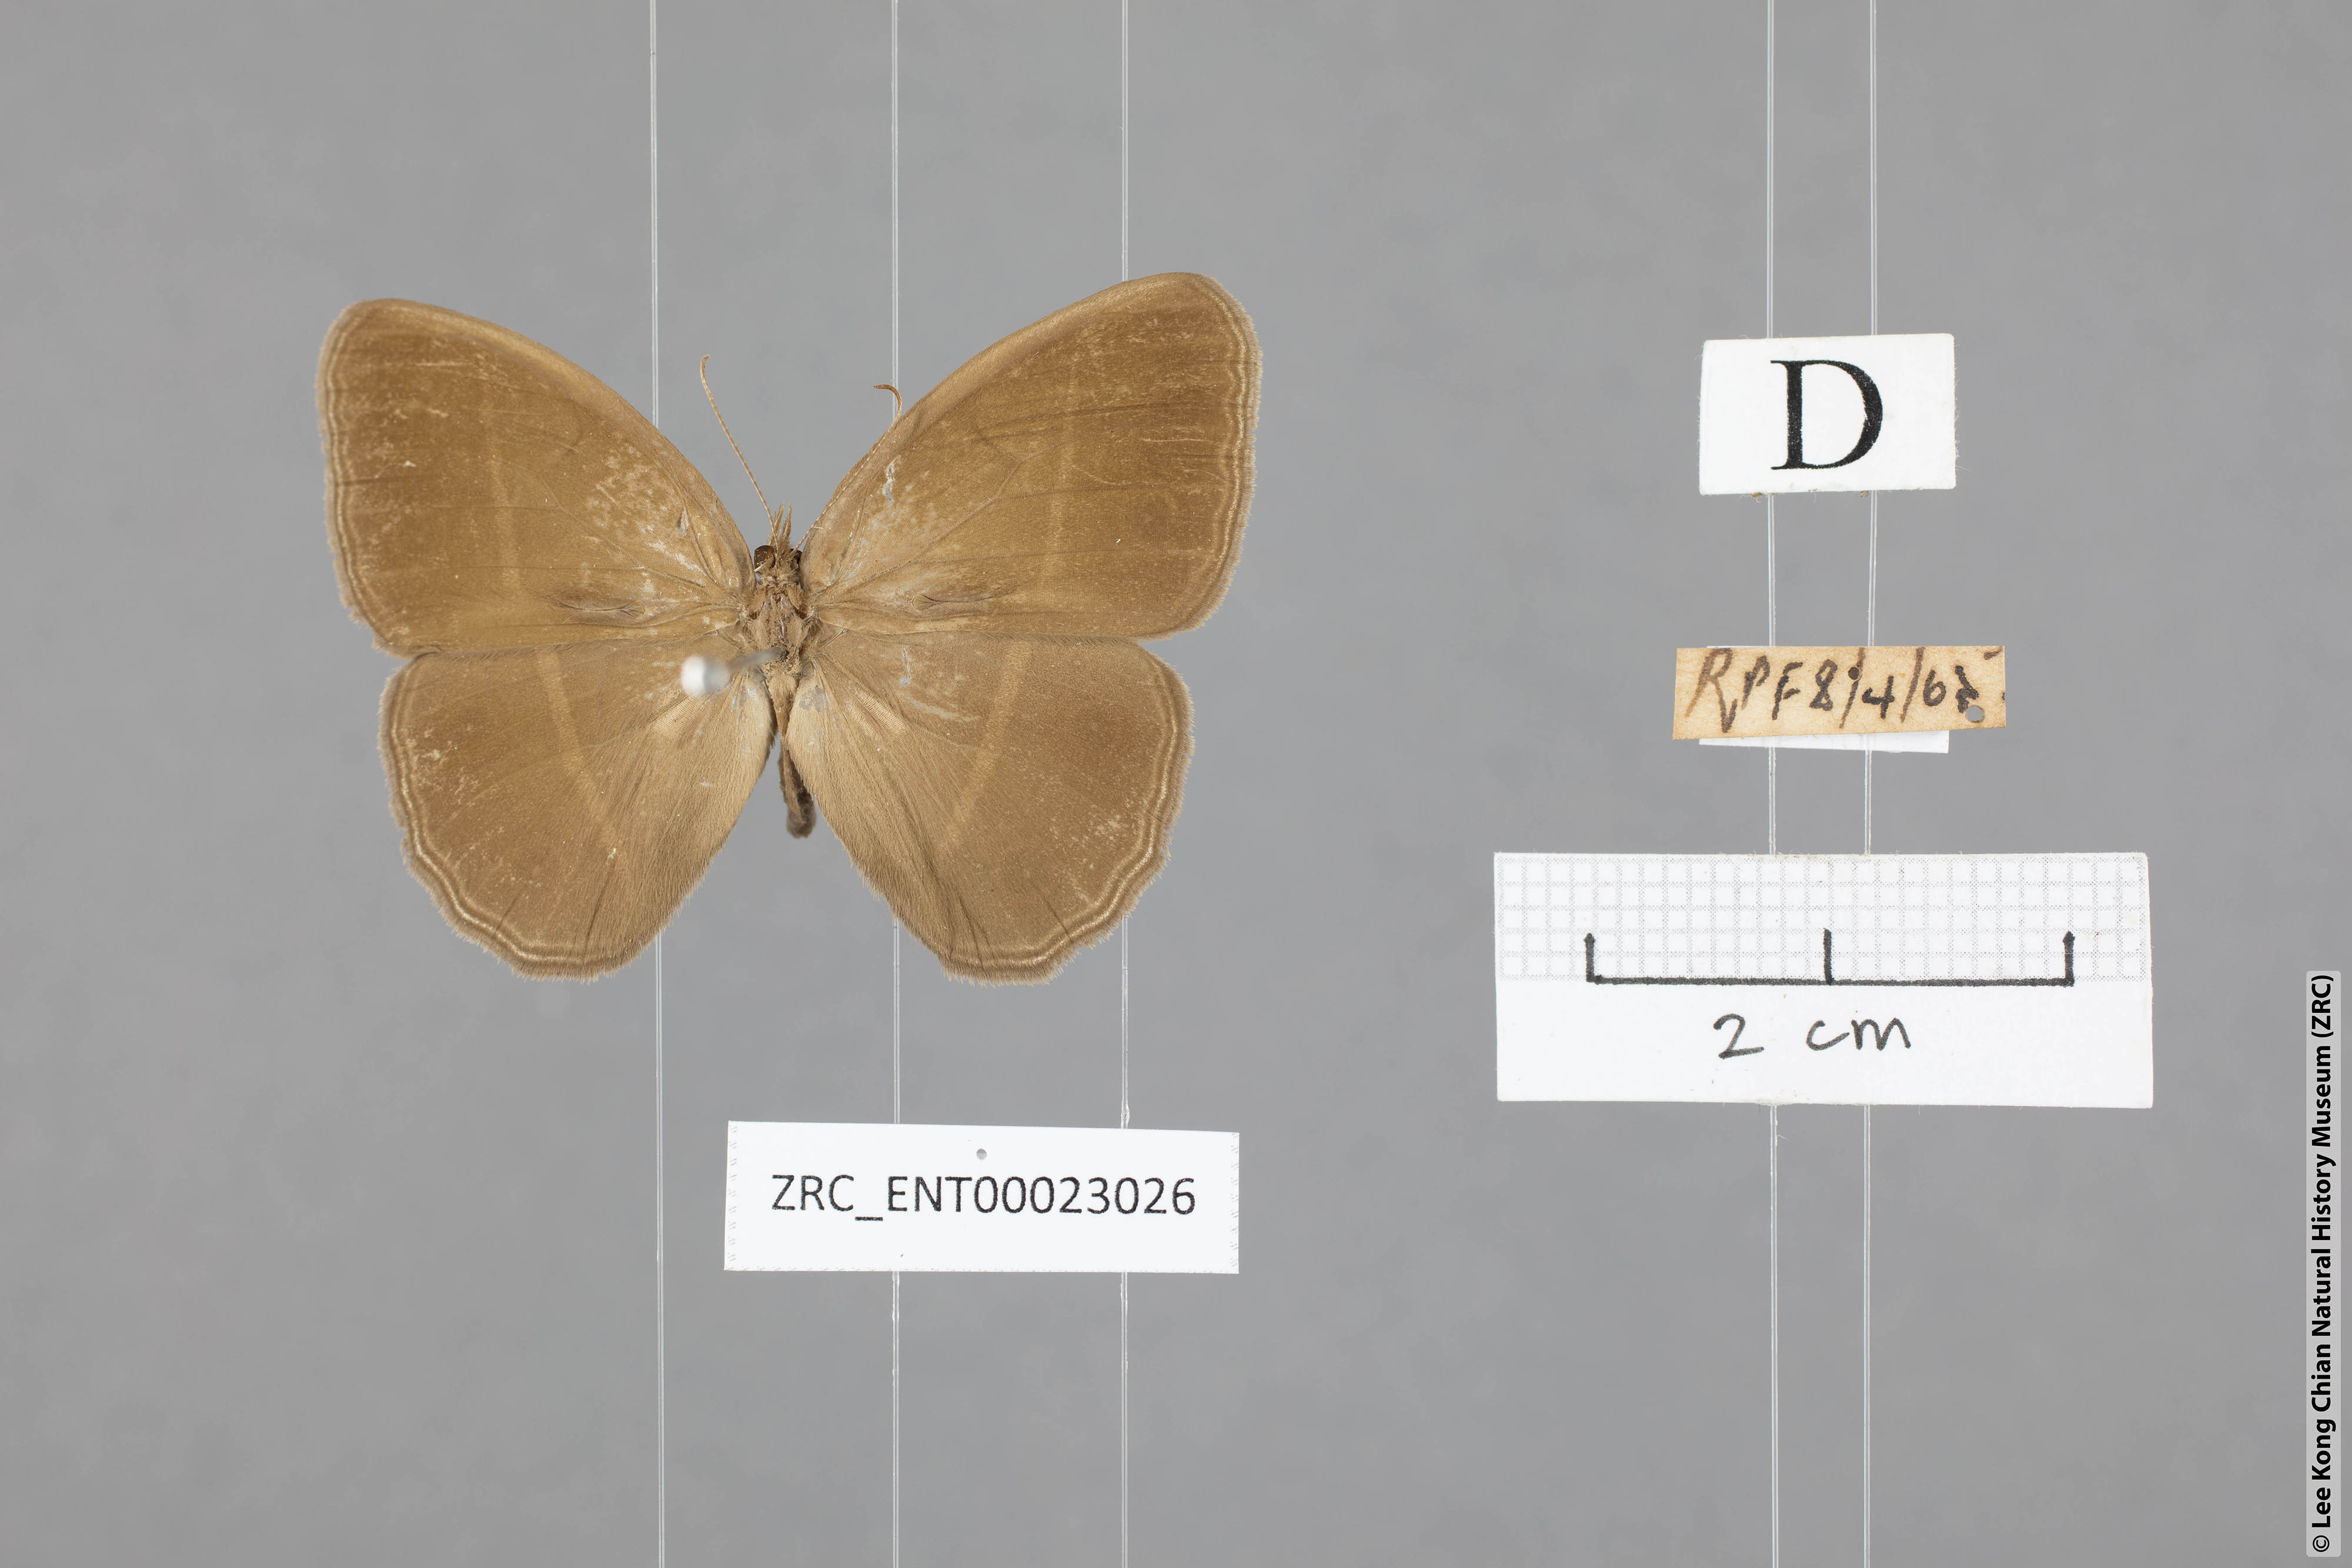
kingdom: Animalia
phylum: Arthropoda
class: Insecta
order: Lepidoptera
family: Nymphalidae
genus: Orsotriaena
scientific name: Orsotriaena medus
